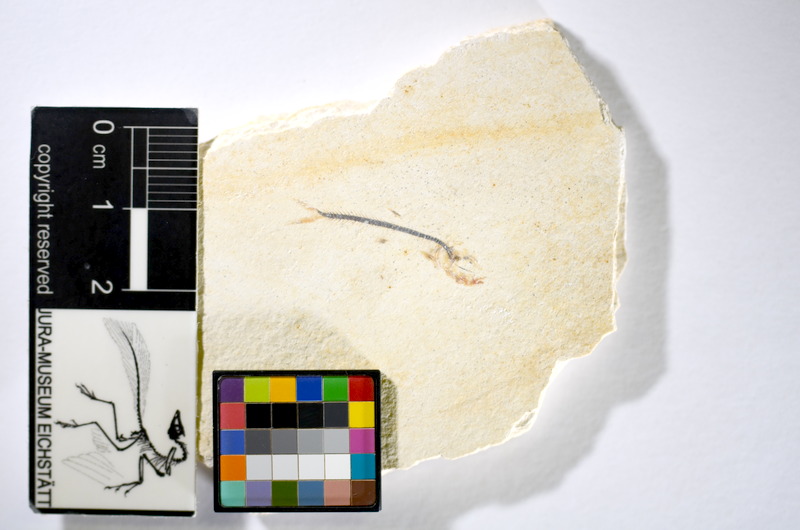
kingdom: Animalia
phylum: Chordata
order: Salmoniformes
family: Orthogonikleithridae
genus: Orthogonikleithrus
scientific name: Orthogonikleithrus hoelli
